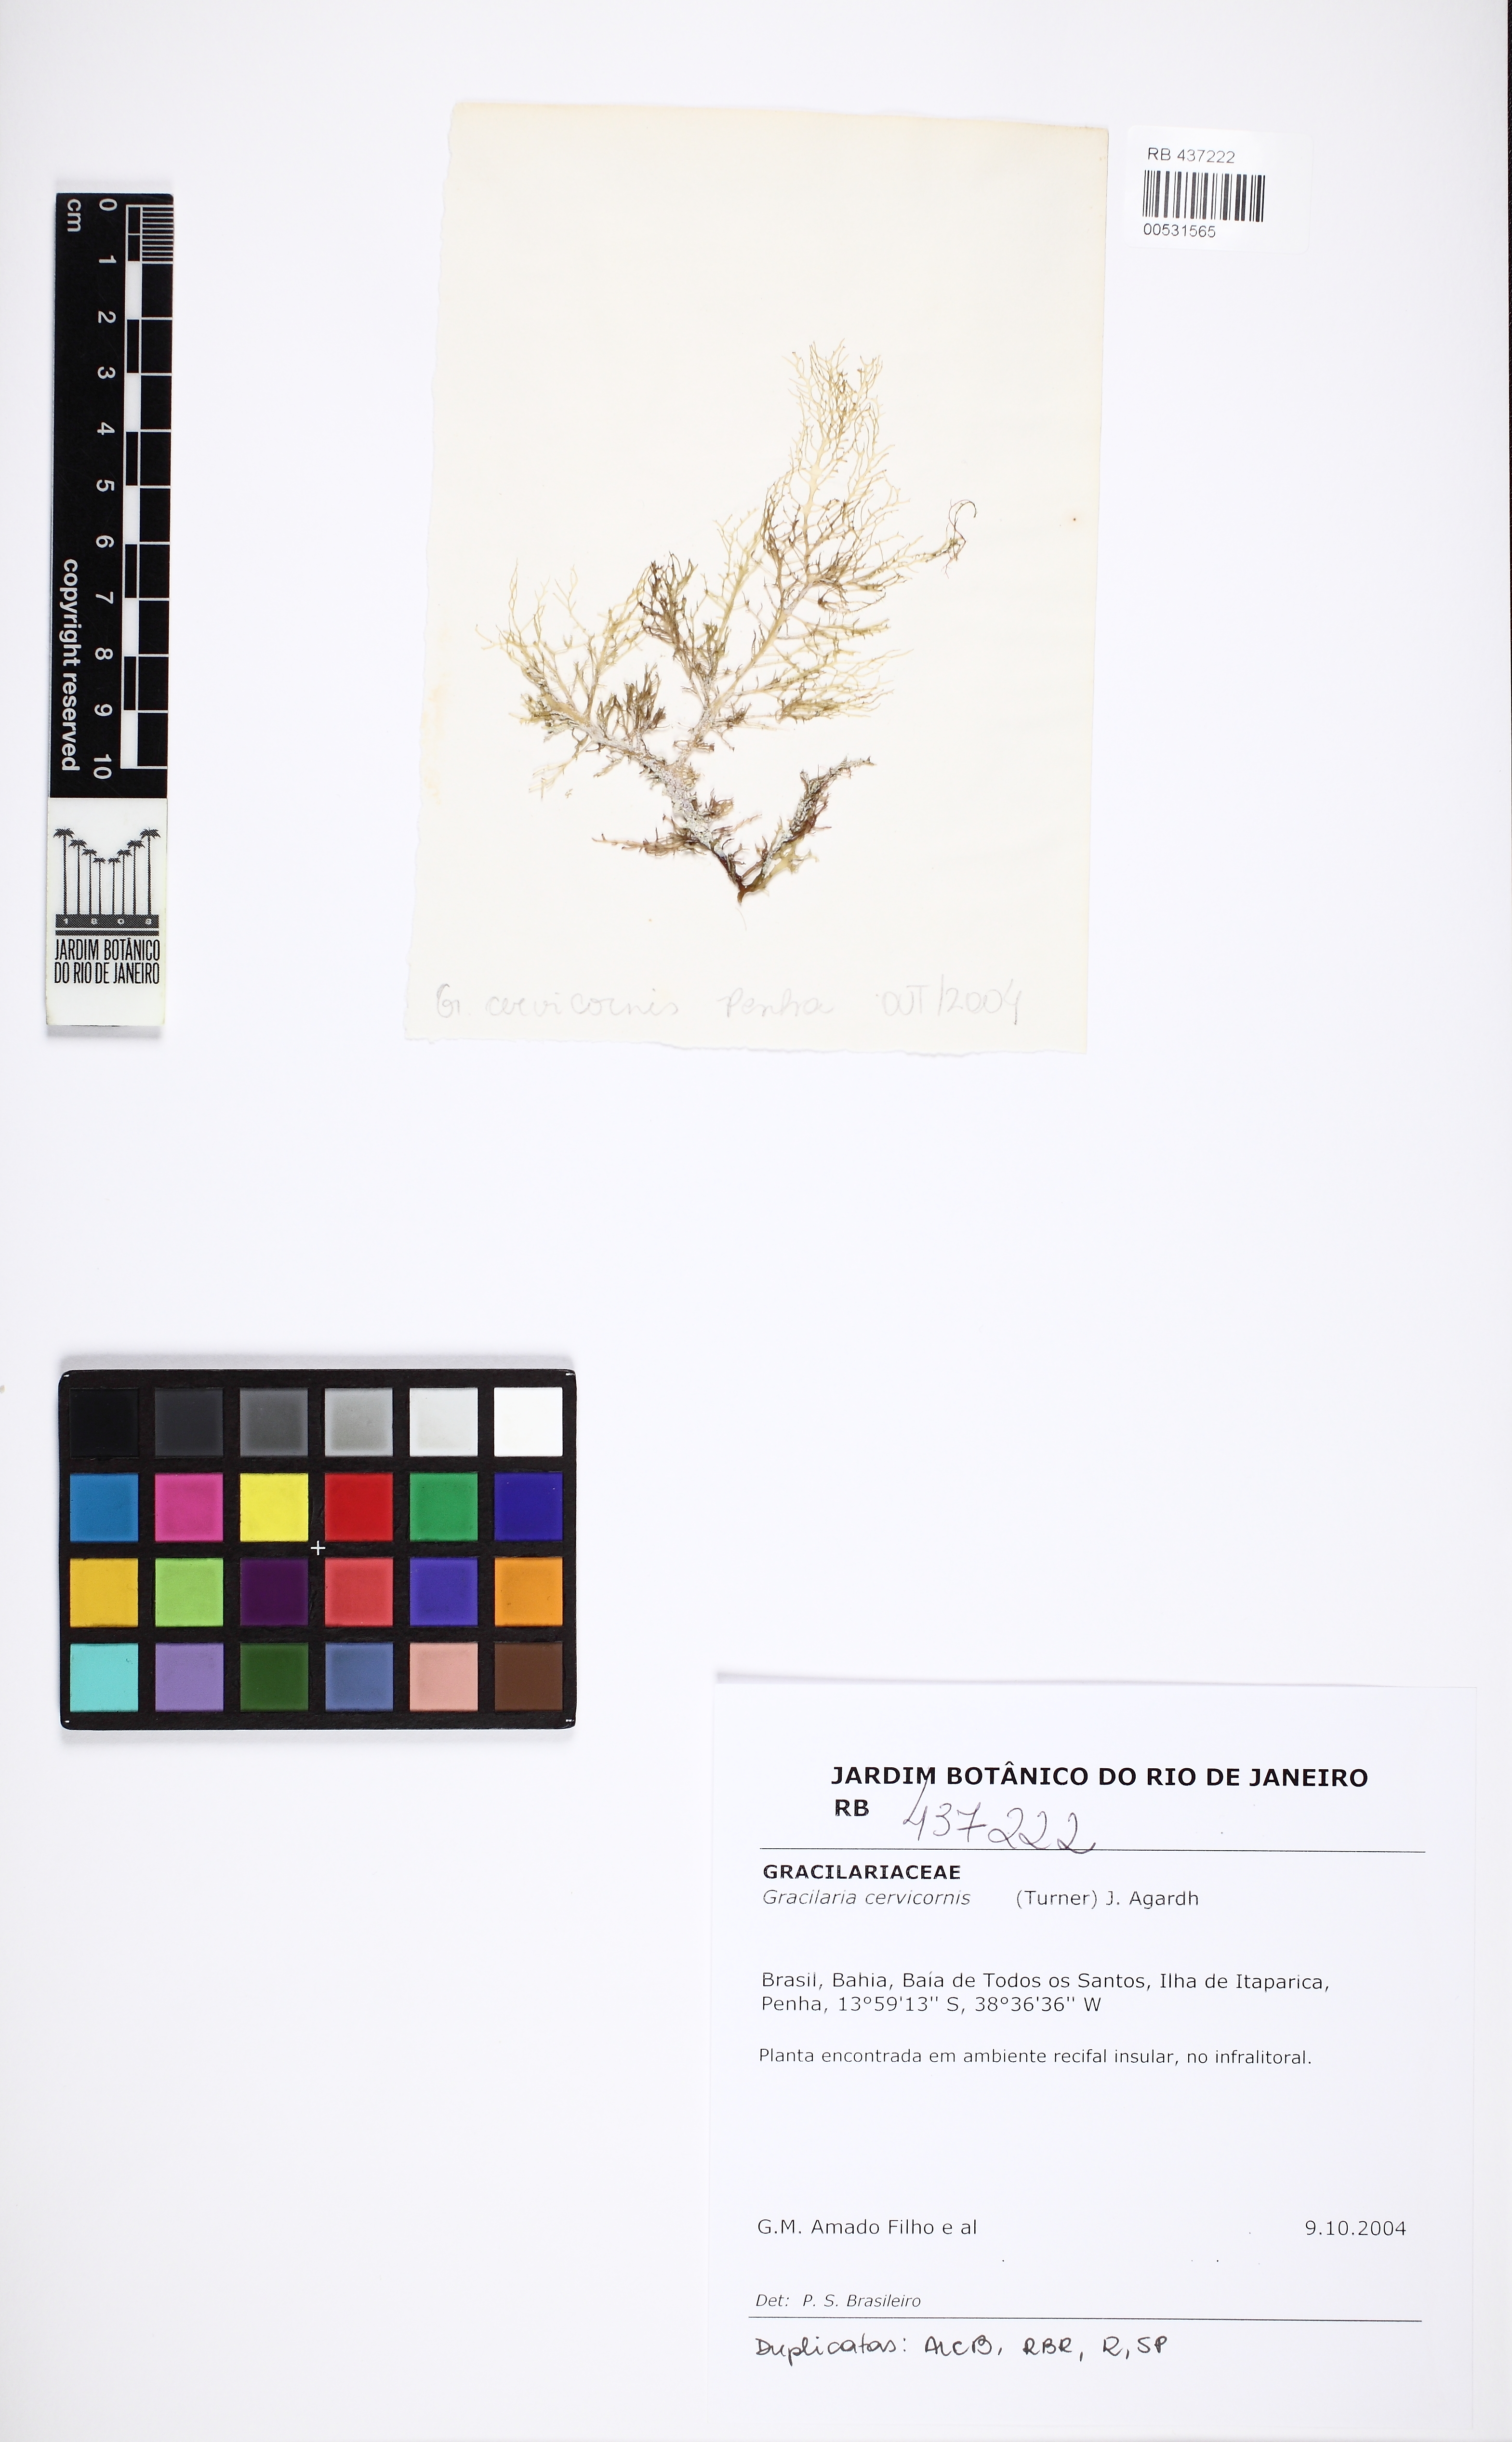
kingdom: Plantae
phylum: Rhodophyta
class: Florideophyceae
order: Gracilariales
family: Gracilariaceae
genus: Gracilaria
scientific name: Gracilaria cervicornis
